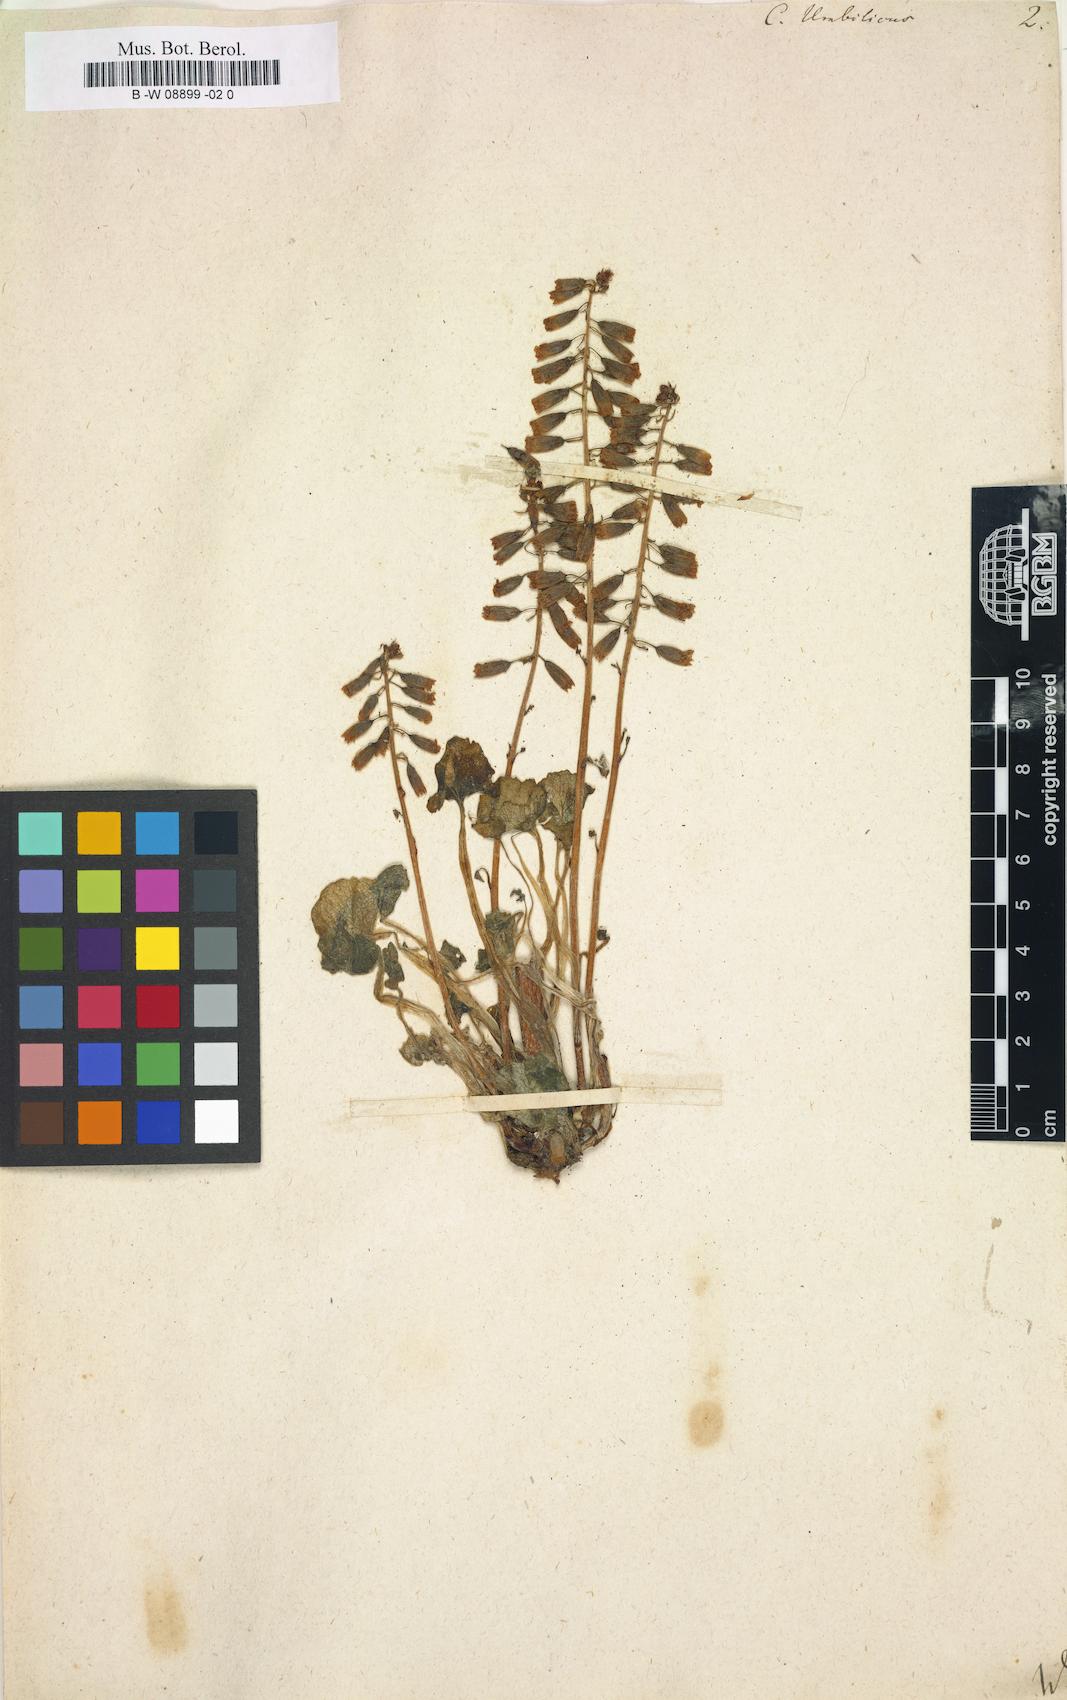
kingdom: Plantae
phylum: Tracheophyta
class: Magnoliopsida
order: Saxifragales
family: Crassulaceae
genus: Umbilicus
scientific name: Umbilicus rupestris
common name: Navelwort
